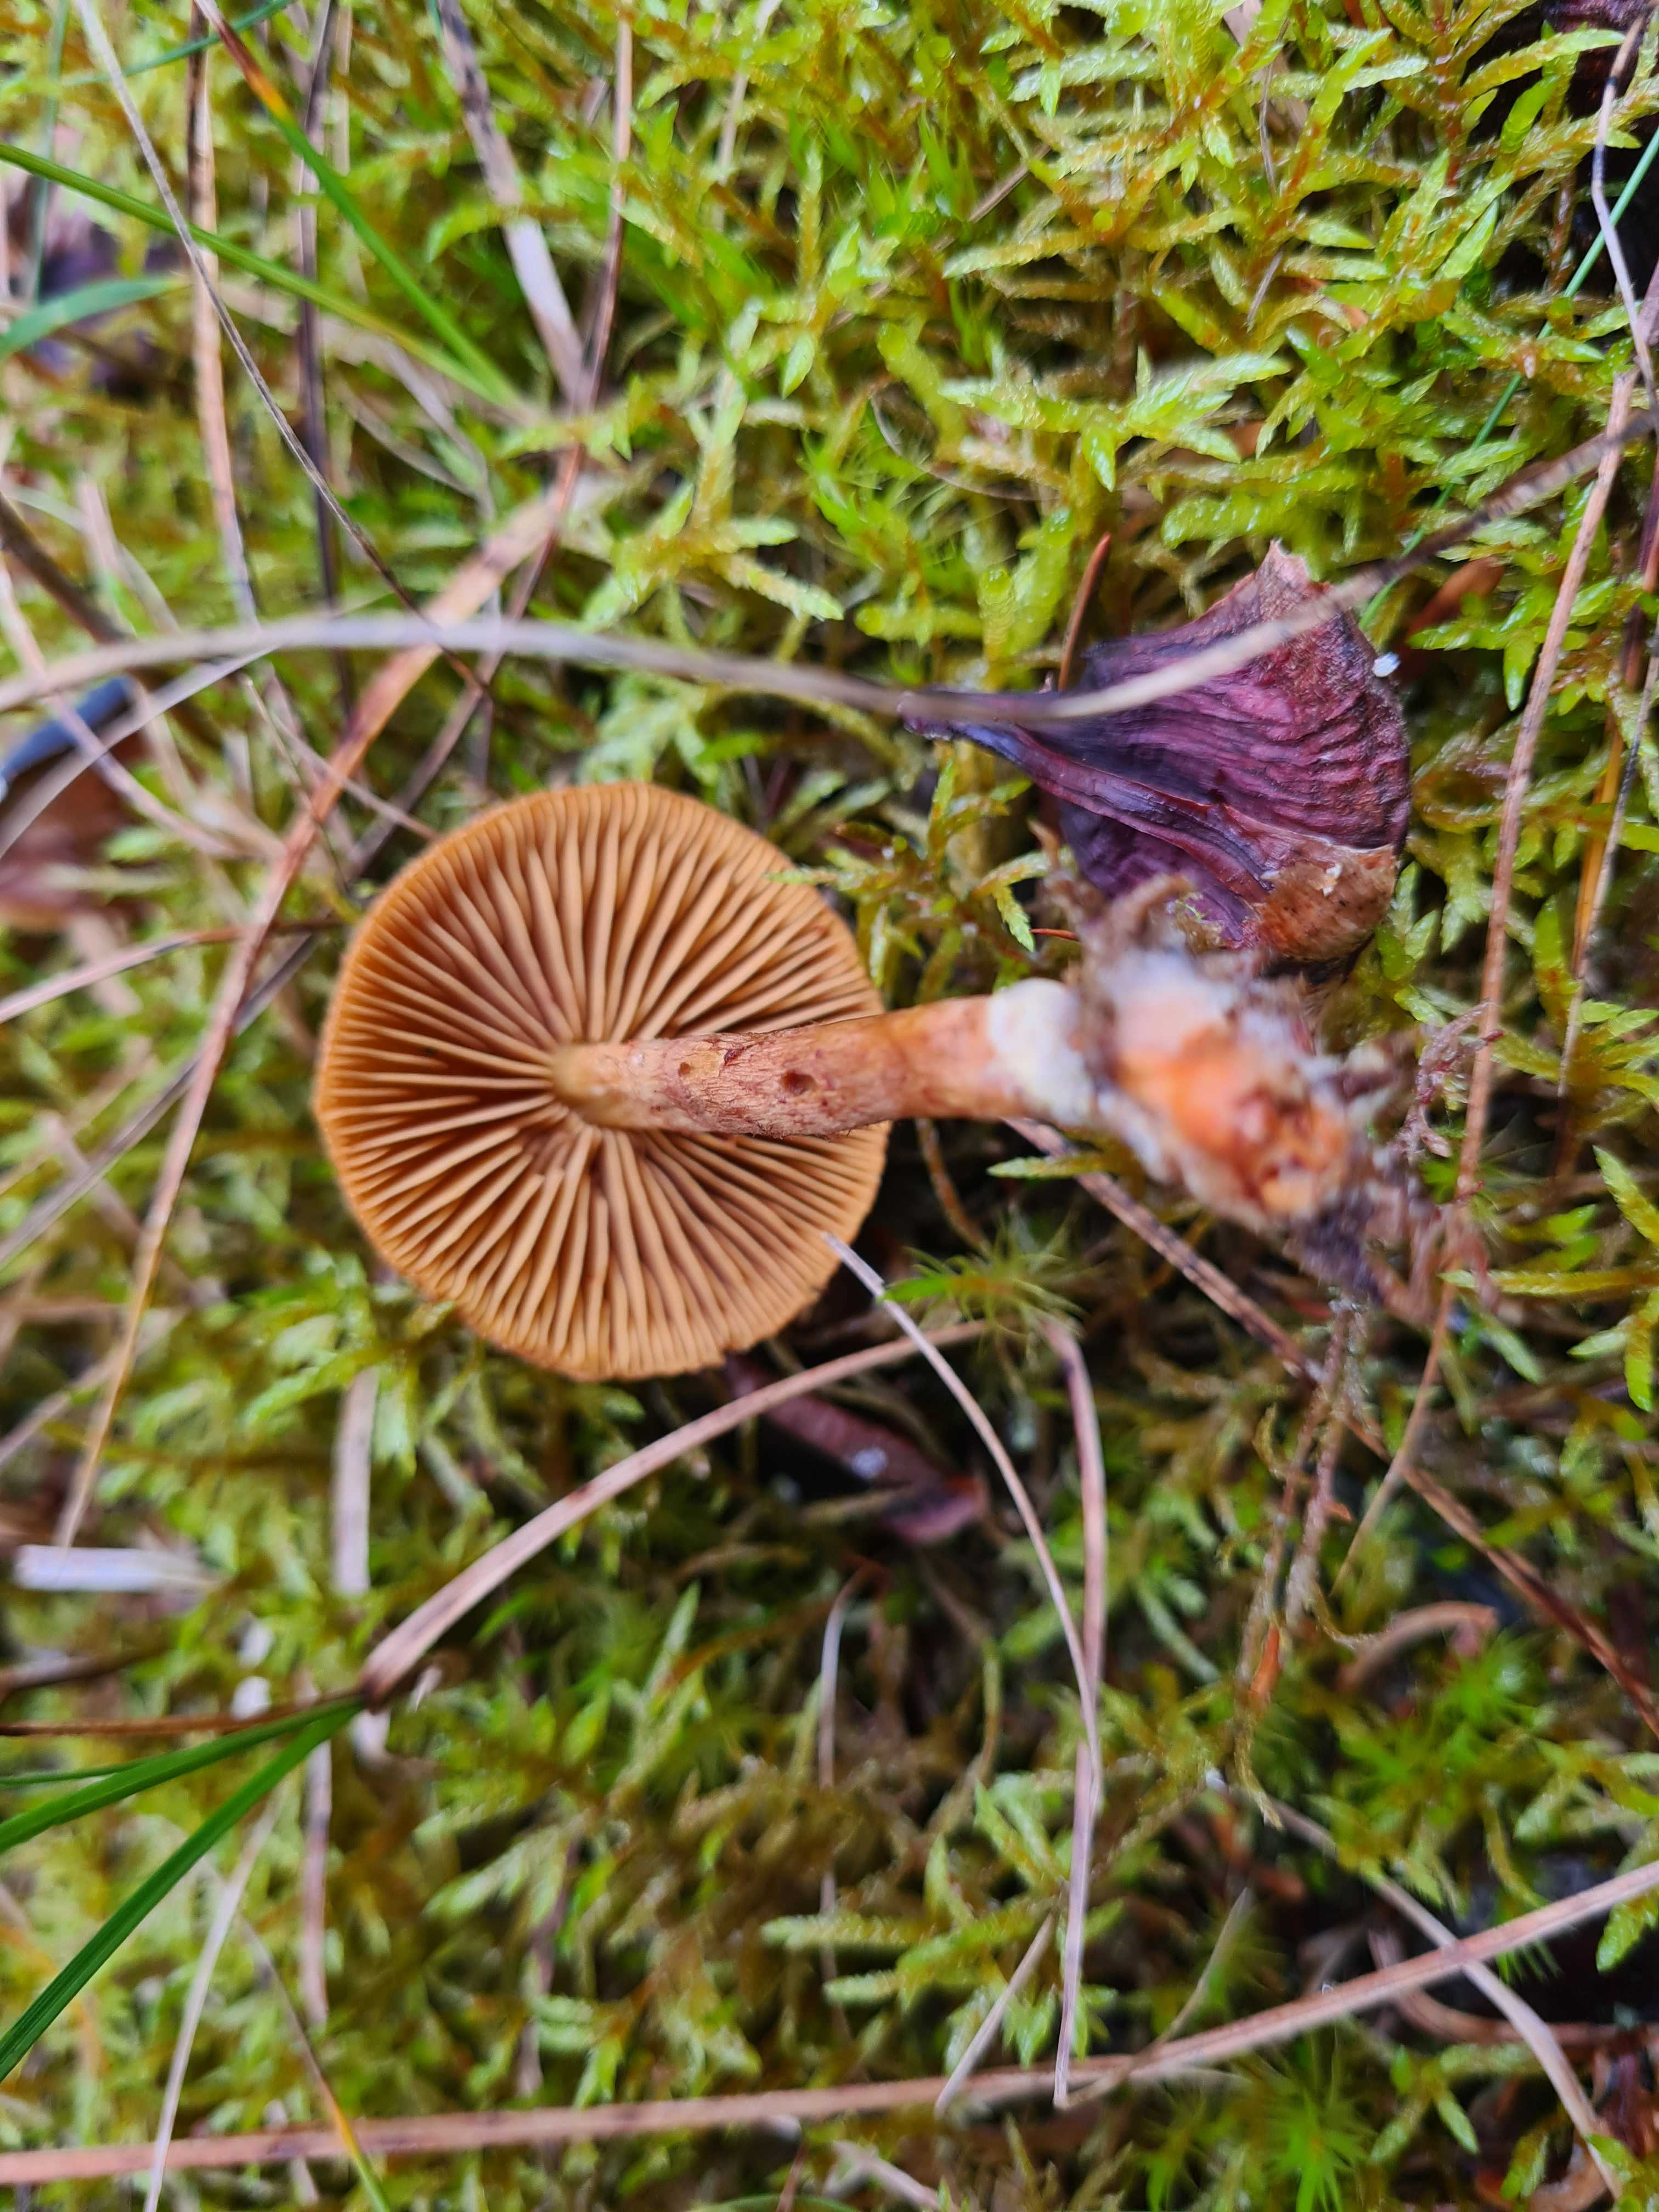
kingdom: Fungi
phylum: Basidiomycota
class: Agaricomycetes
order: Agaricales
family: Cortinariaceae
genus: Cortinarius
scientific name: Cortinarius
